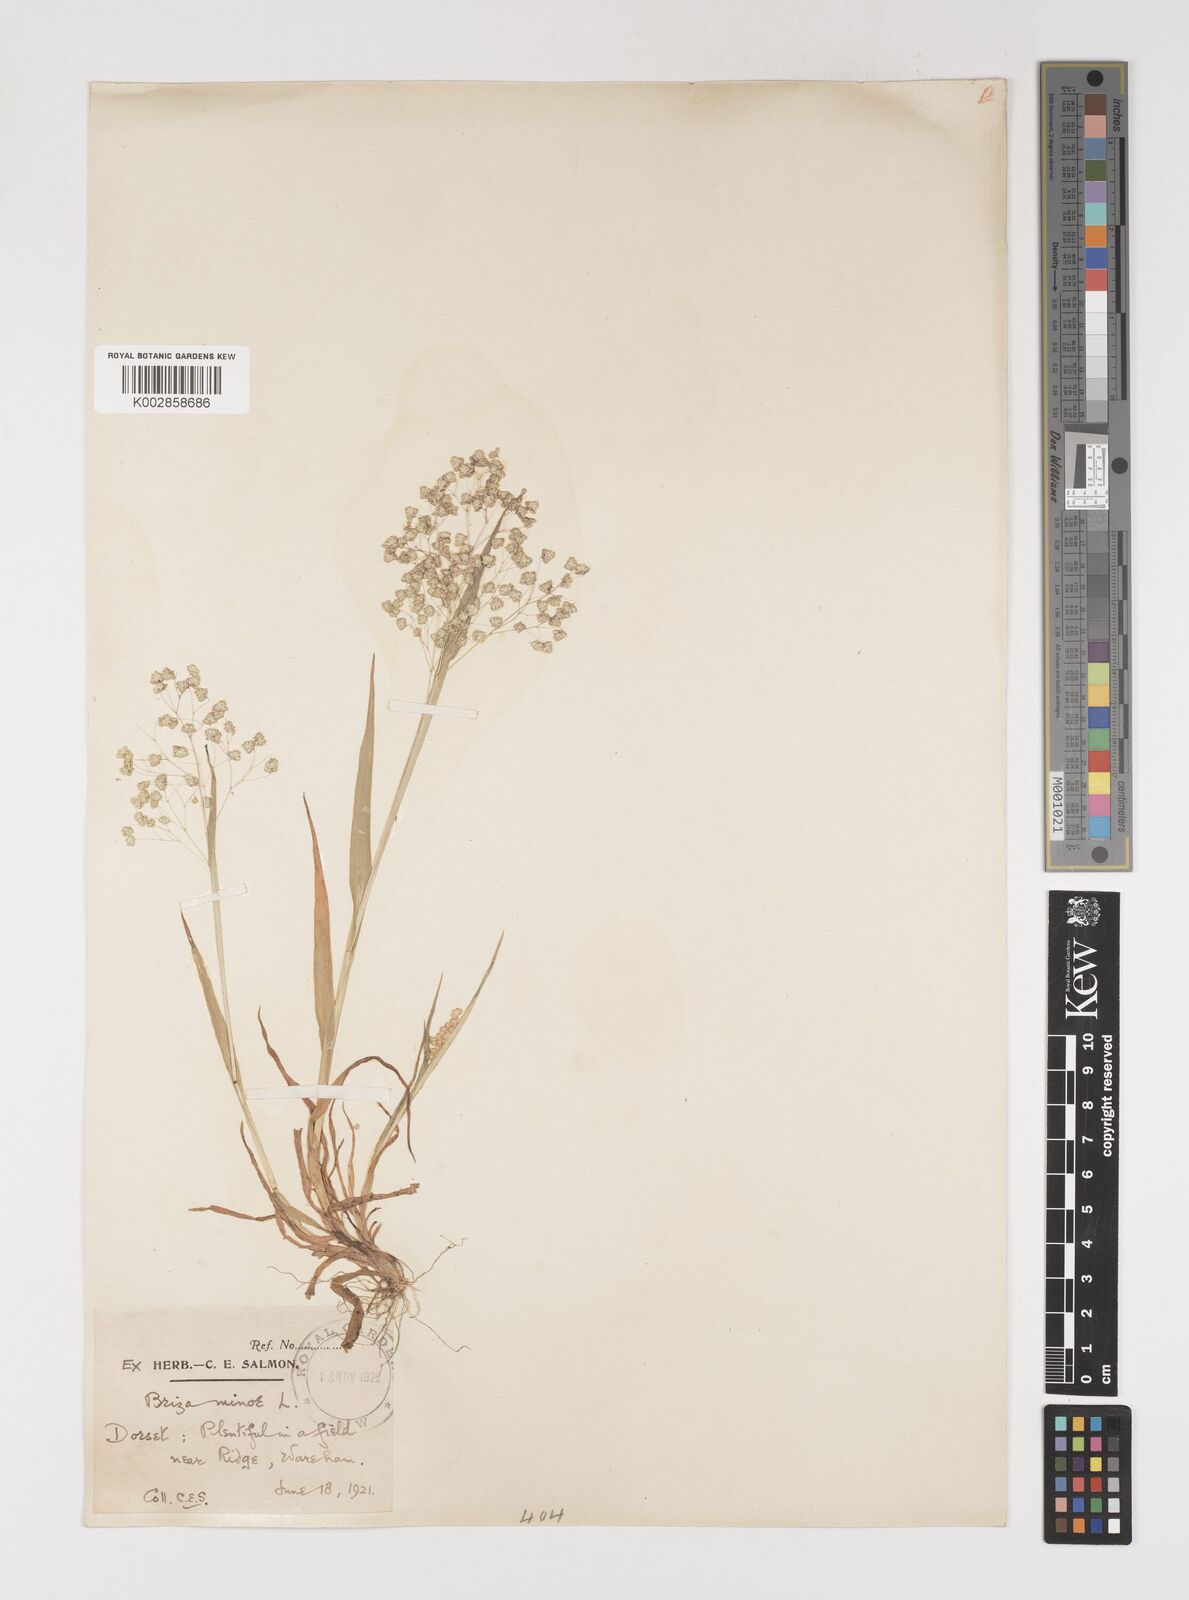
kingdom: Plantae
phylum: Tracheophyta
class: Liliopsida
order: Poales
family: Poaceae
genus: Briza
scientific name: Briza minor
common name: Lesser quaking-grass
